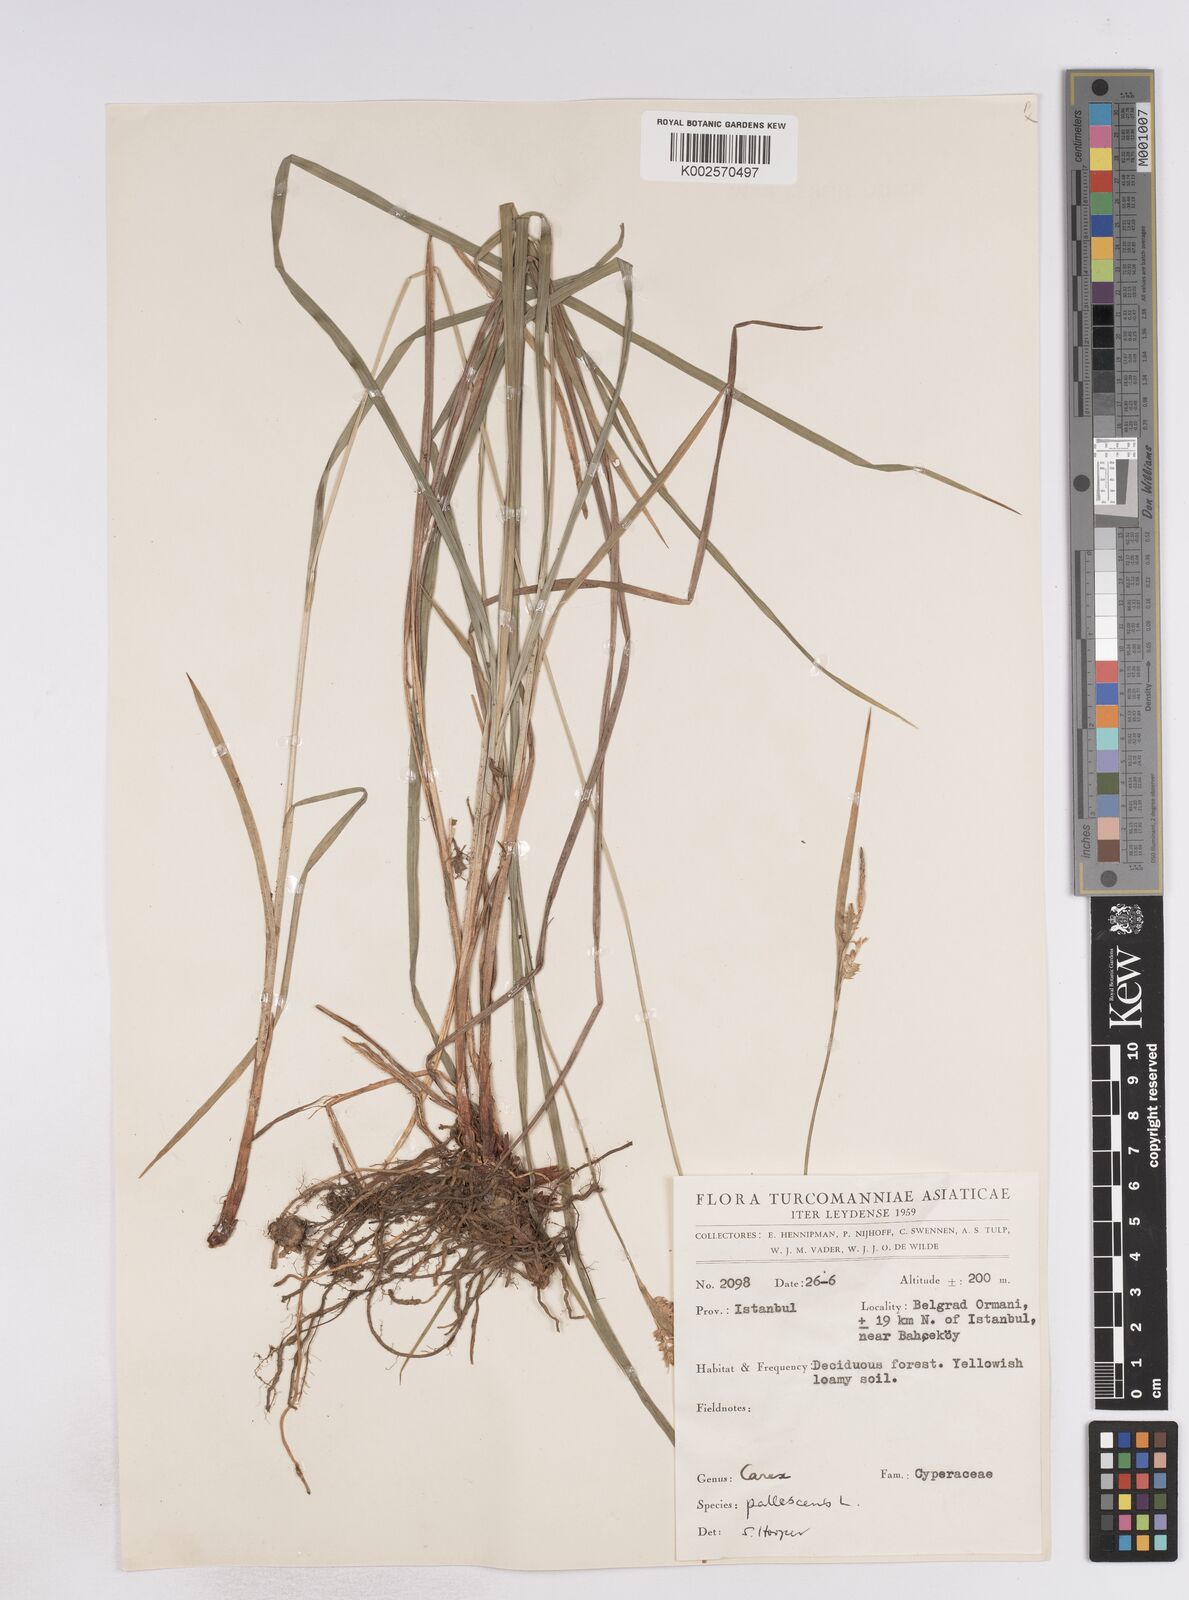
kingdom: Plantae
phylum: Tracheophyta
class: Liliopsida
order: Poales
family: Cyperaceae
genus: Carex
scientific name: Carex pallescens
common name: Pale sedge
